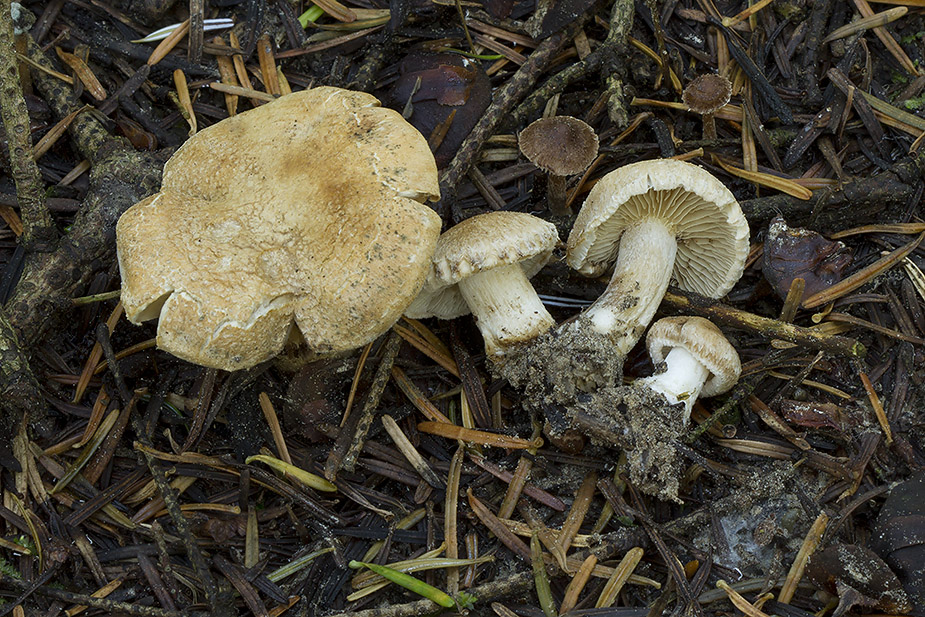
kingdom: Fungi
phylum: Basidiomycota
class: Agaricomycetes
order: Agaricales
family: Inocybaceae
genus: Inocybe
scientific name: Inocybe melanopoda
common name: sortfodet trævlhat
